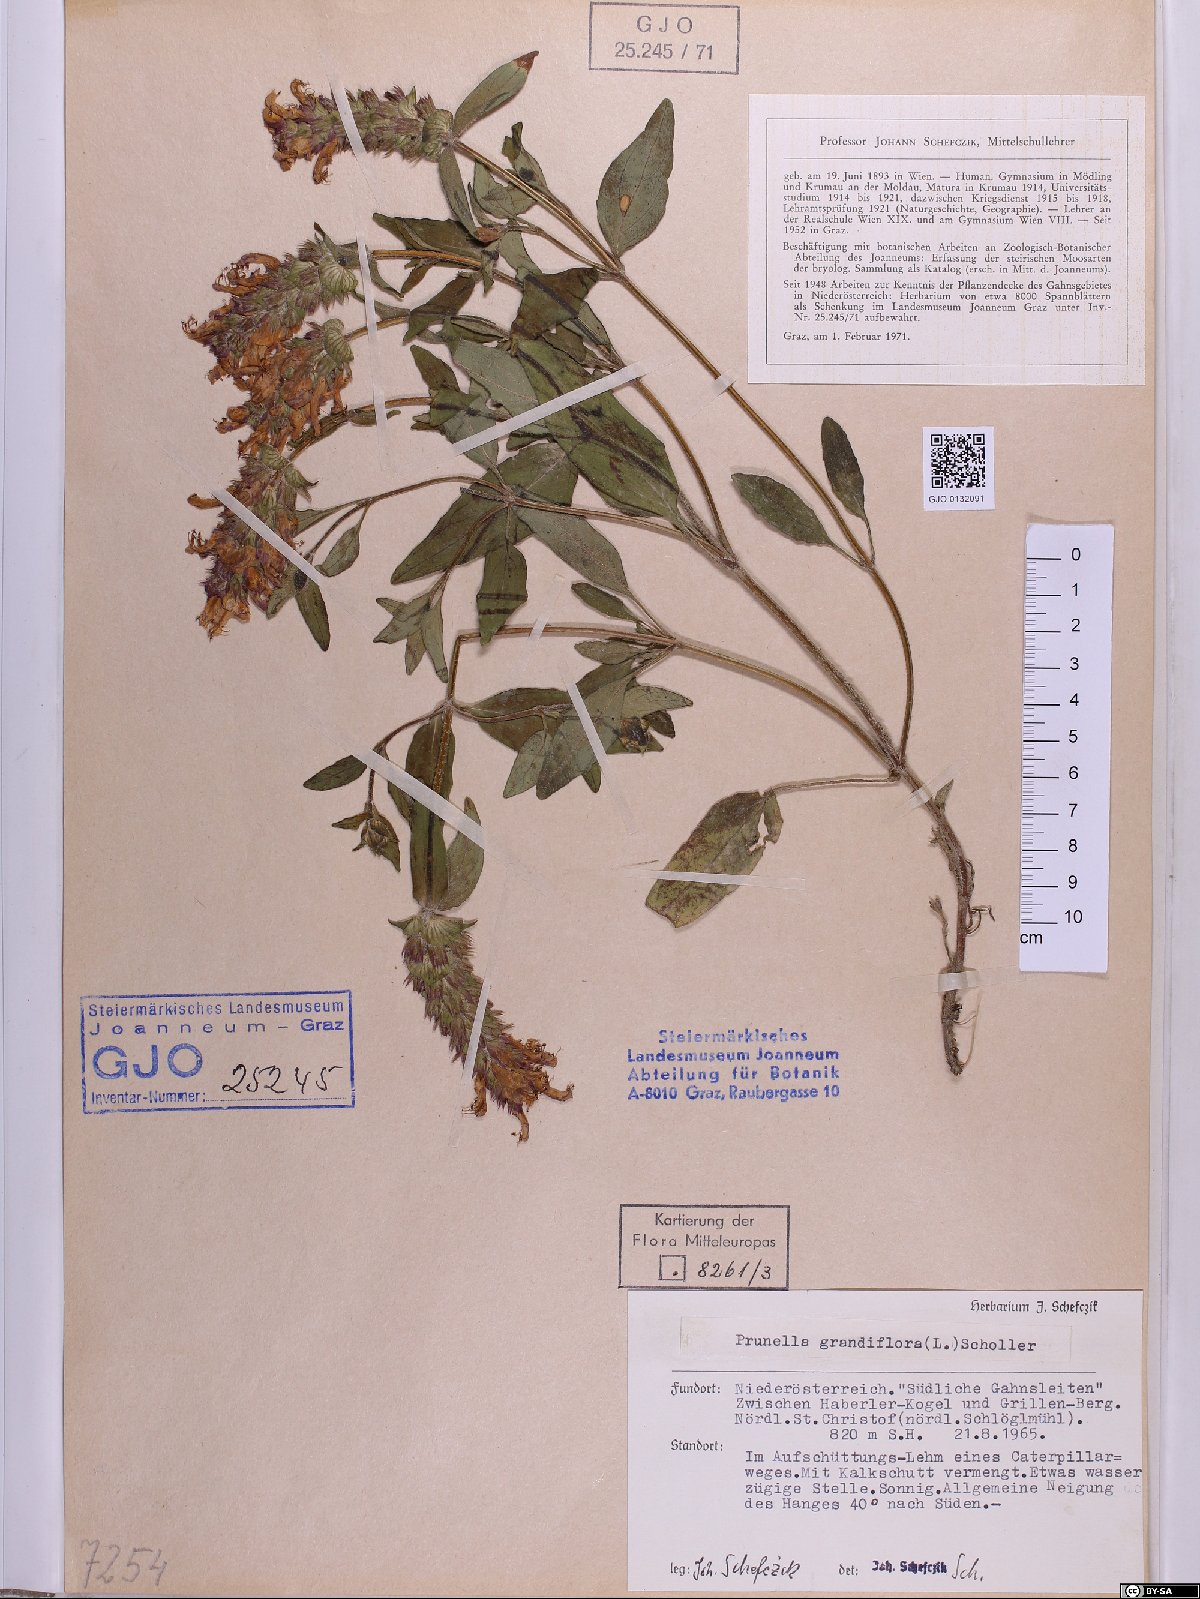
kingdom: Plantae
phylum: Tracheophyta
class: Magnoliopsida
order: Lamiales
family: Lamiaceae
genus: Prunella
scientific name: Prunella grandiflora
